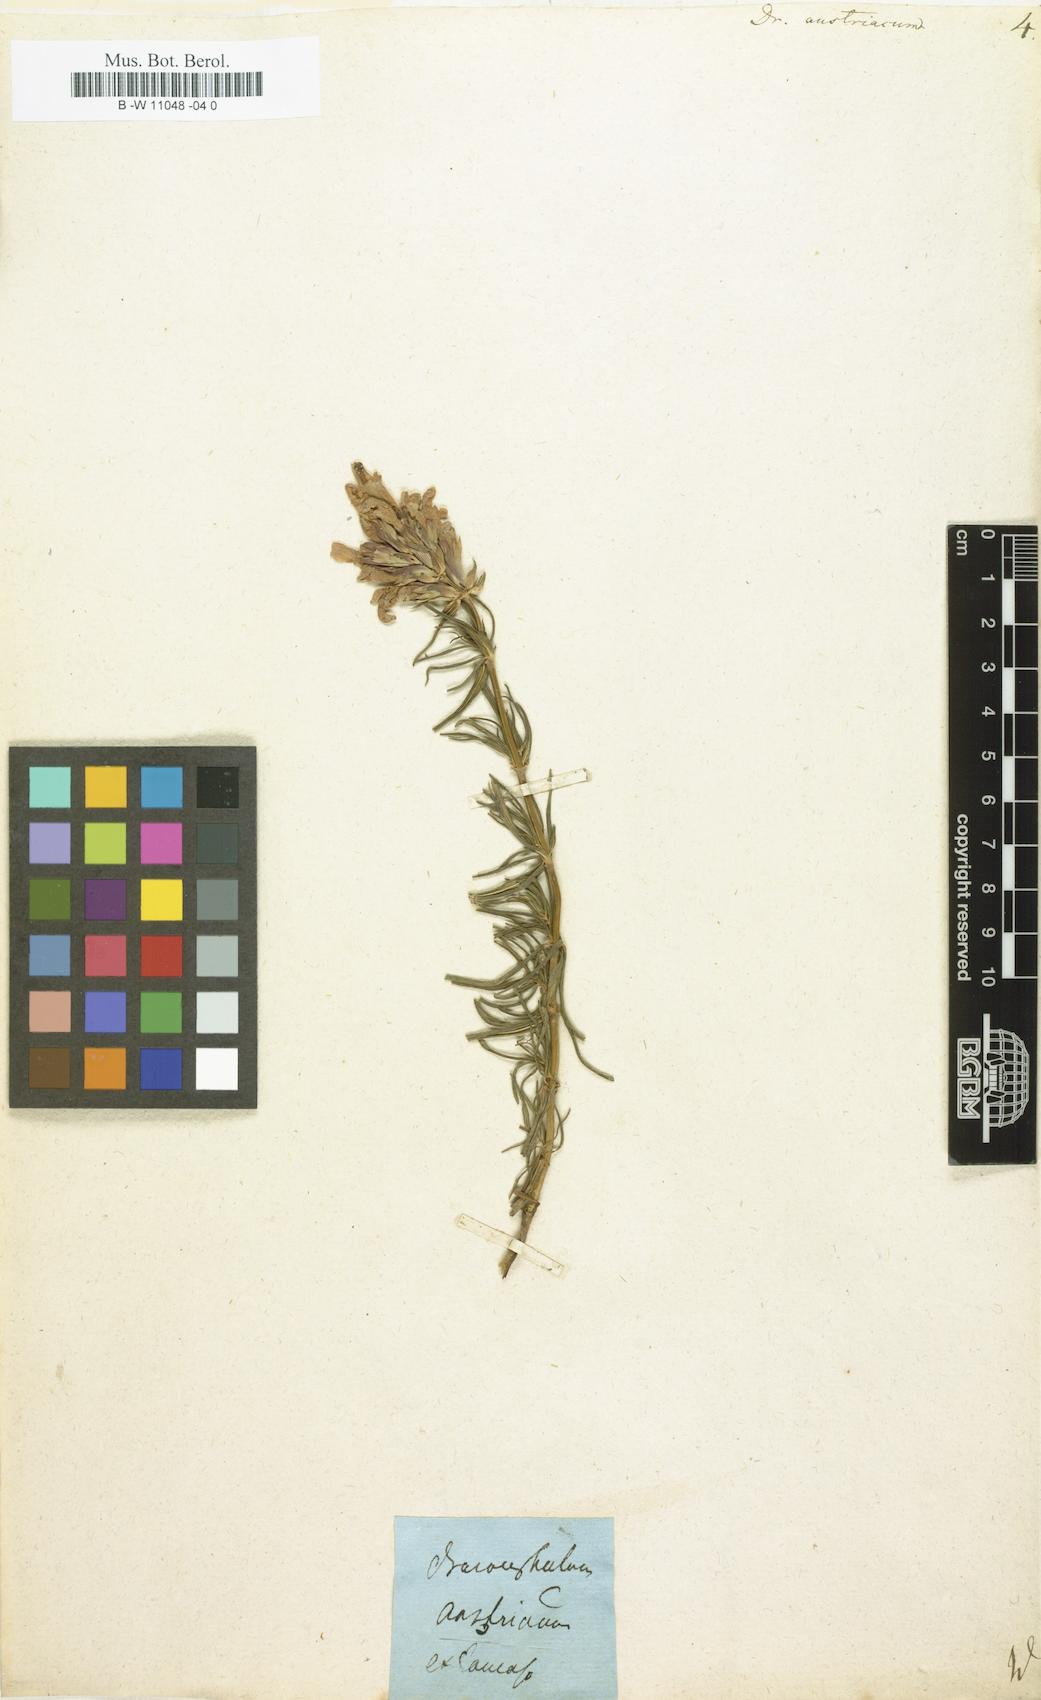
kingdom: Plantae
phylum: Tracheophyta
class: Magnoliopsida
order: Lamiales
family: Lamiaceae
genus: Dracocephalum
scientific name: Dracocephalum austriacum
